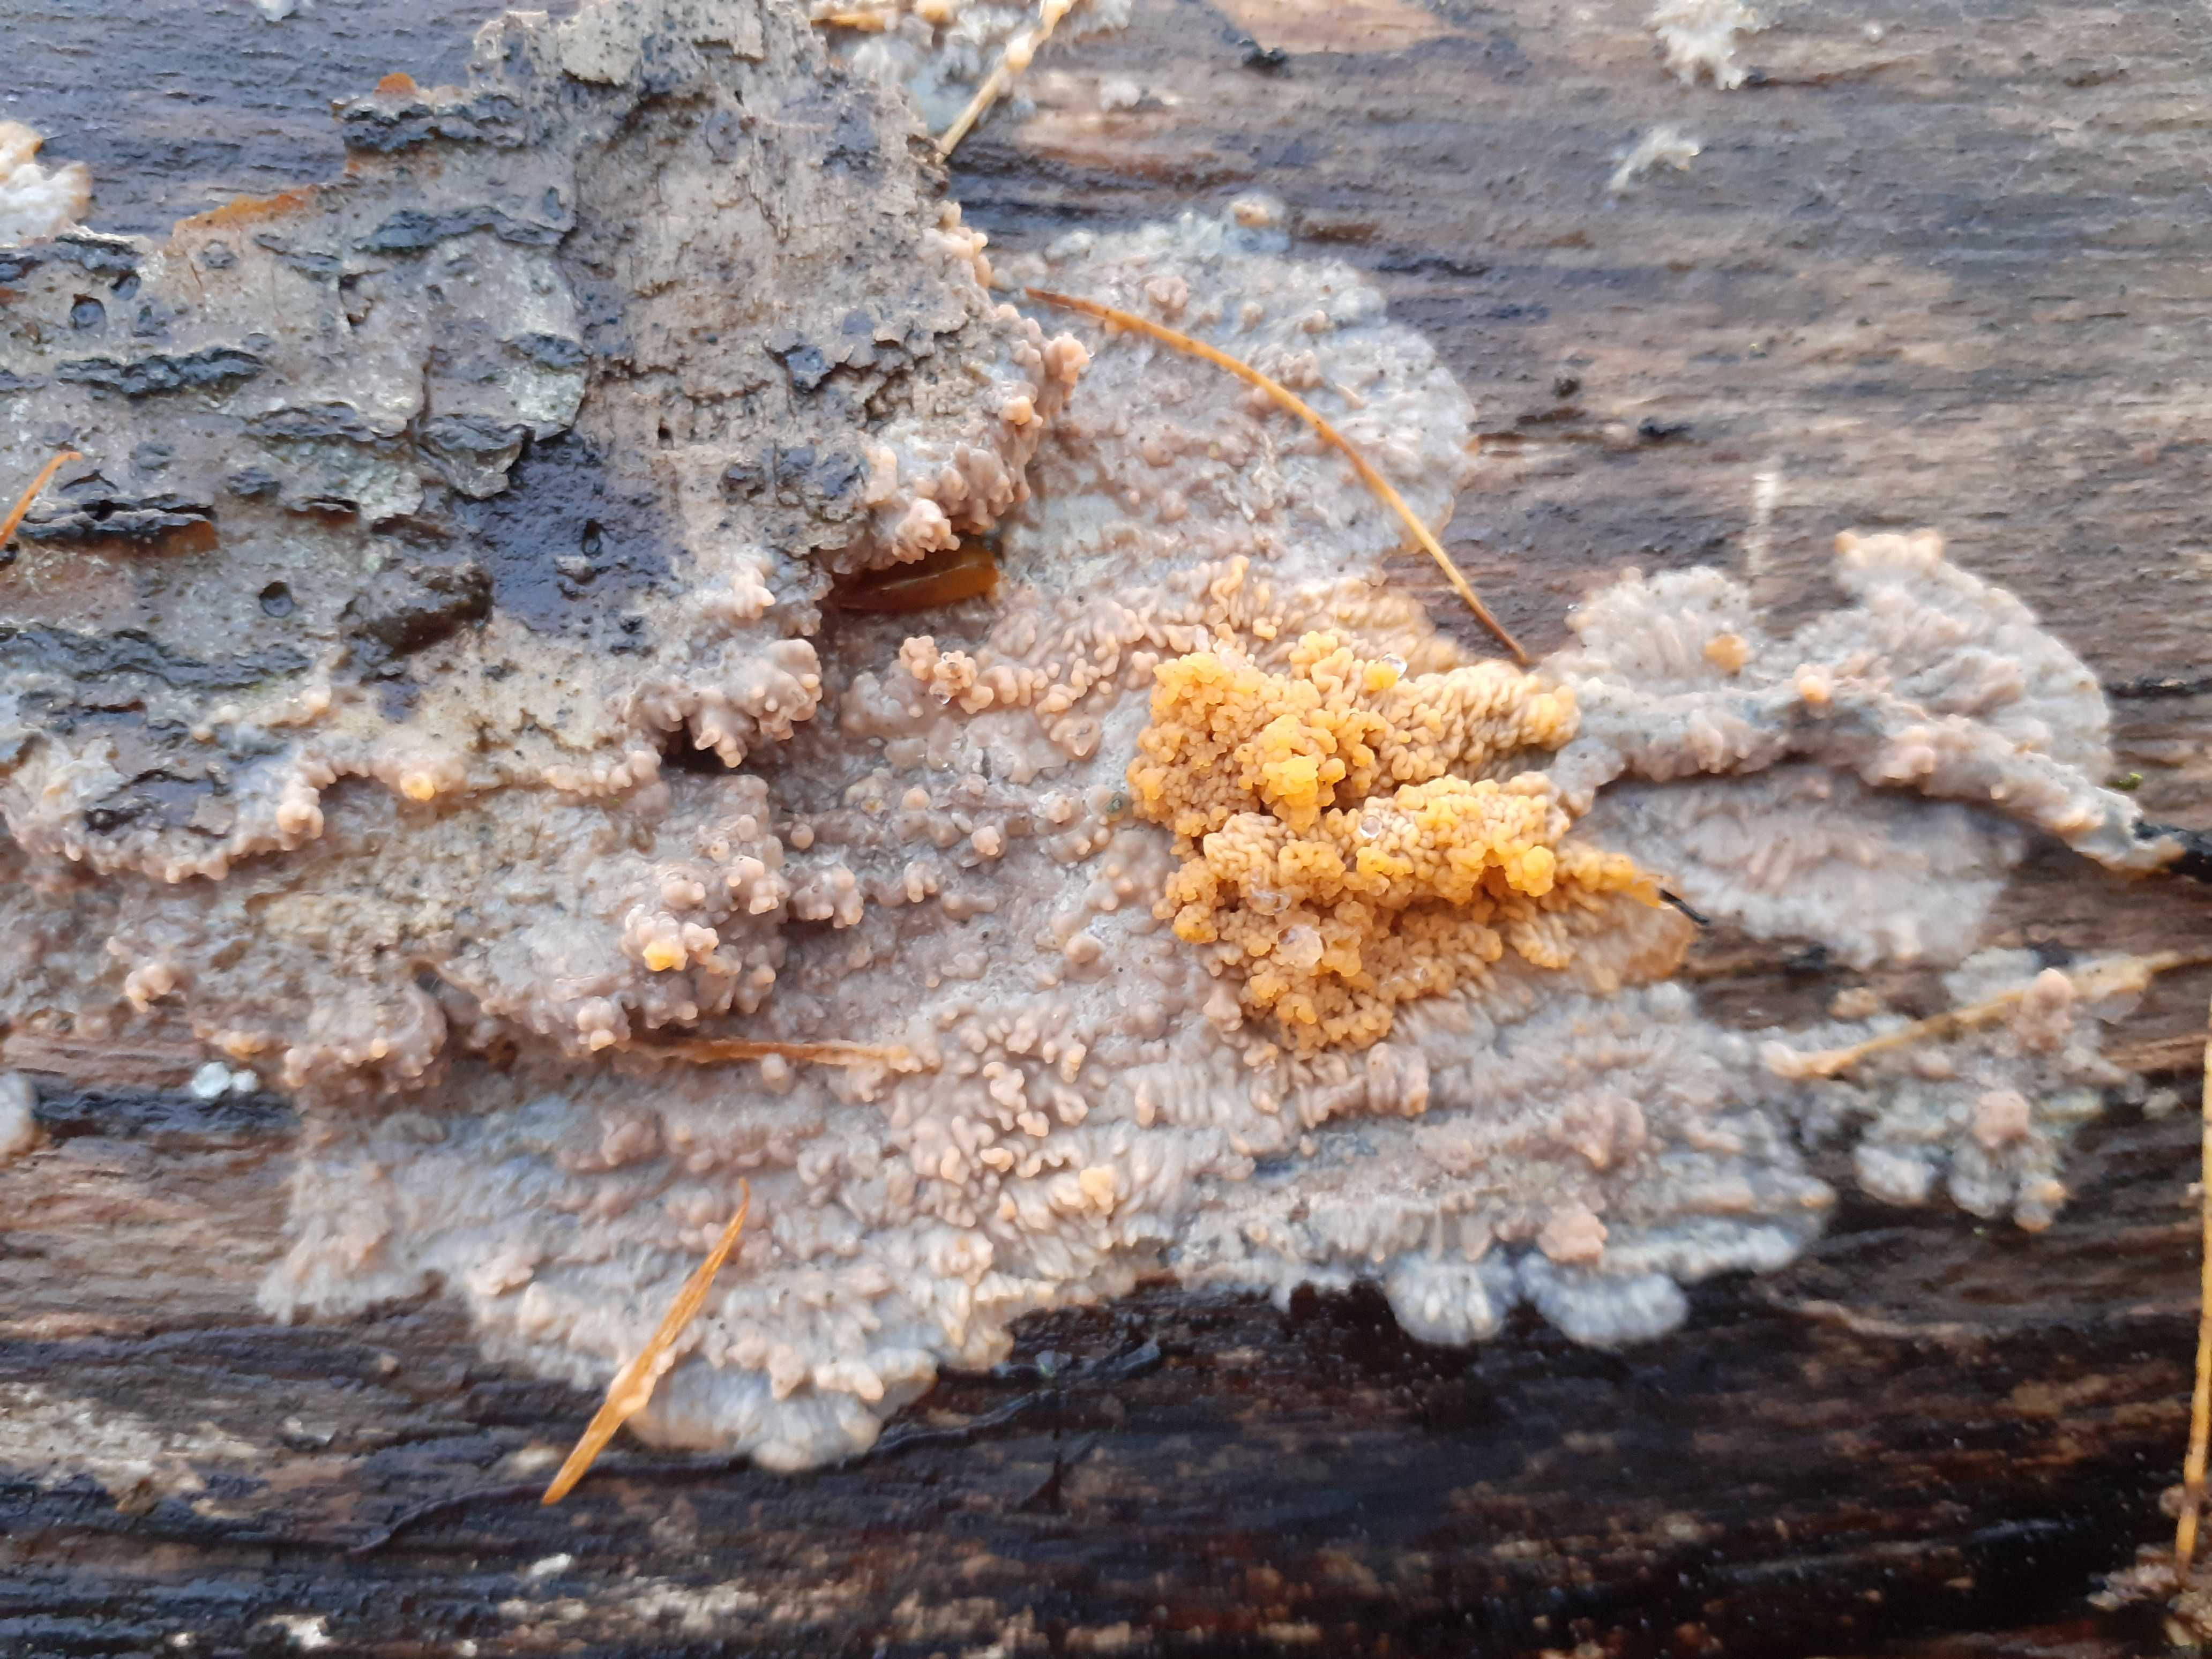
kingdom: Fungi
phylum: Basidiomycota
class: Agaricomycetes
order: Polyporales
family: Meruliaceae
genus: Phlebia
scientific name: Phlebia radiata
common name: stråle-åresvamp
